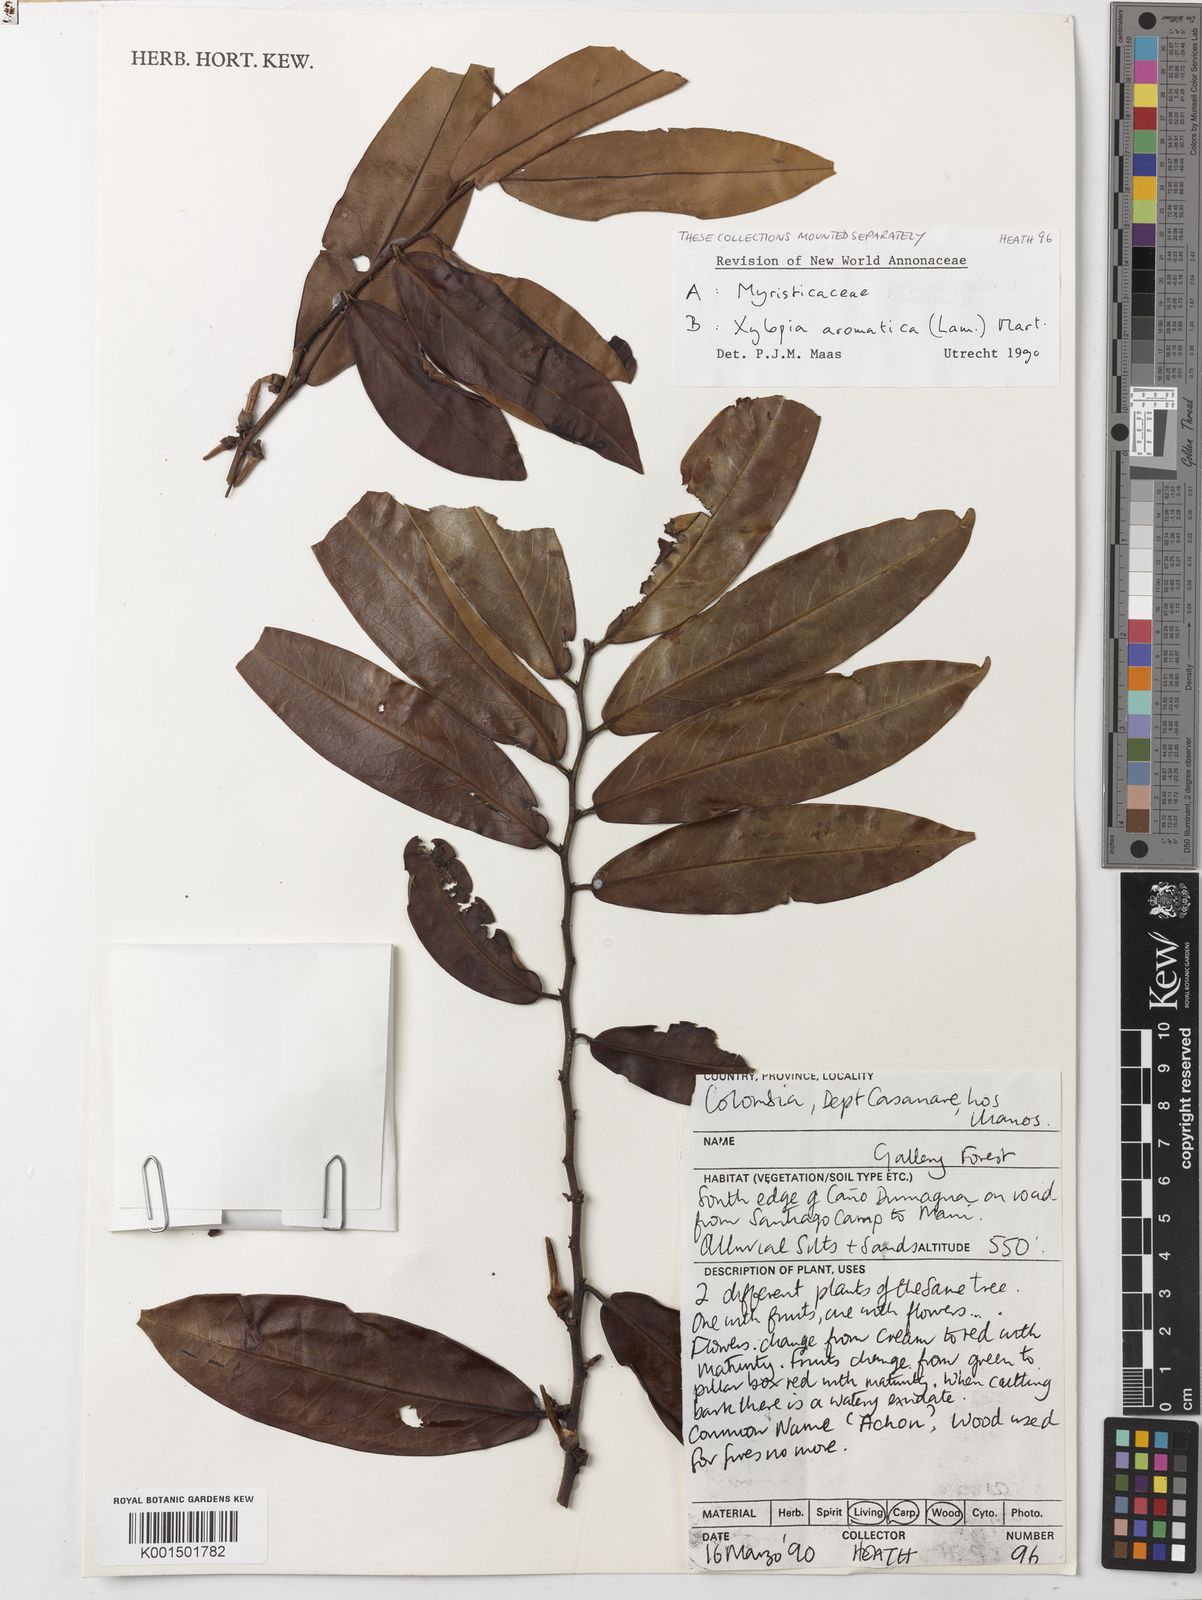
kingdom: Plantae
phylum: Tracheophyta
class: Magnoliopsida
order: Magnoliales
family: Annonaceae
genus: Xylopia
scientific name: Xylopia aromatica
